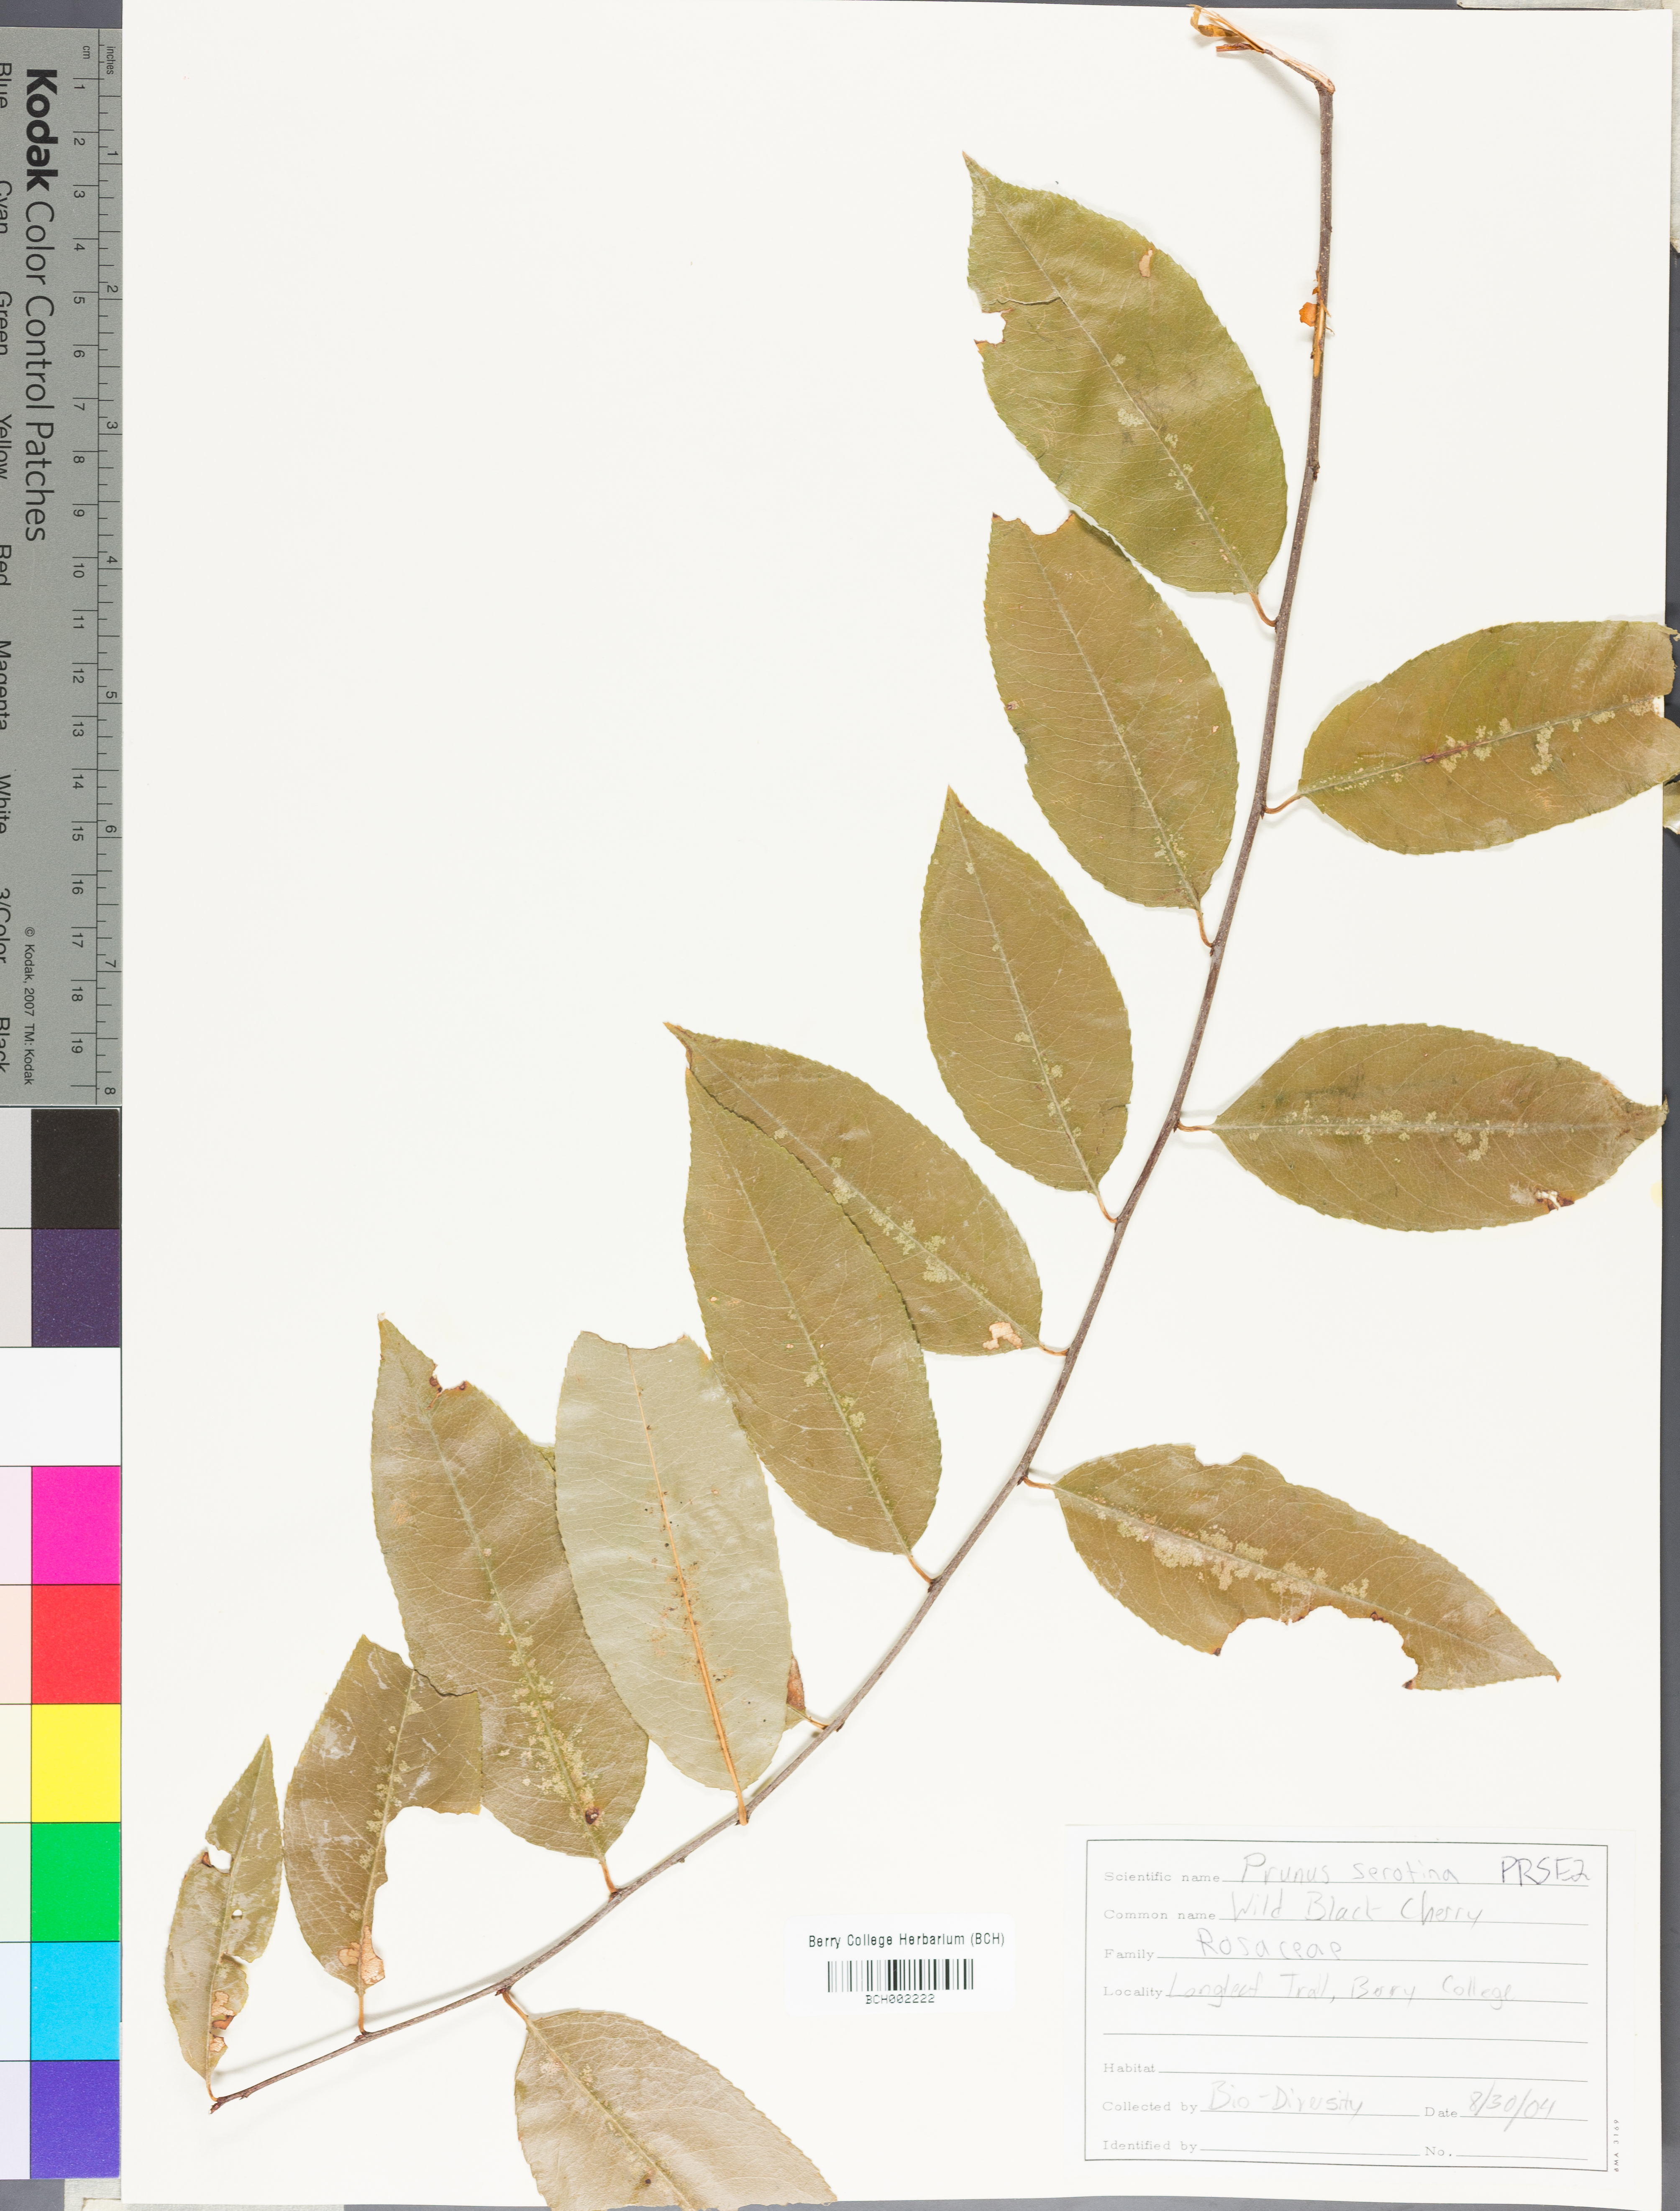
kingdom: Plantae
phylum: Tracheophyta
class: Magnoliopsida
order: Rosales
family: Rosaceae
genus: Prunus
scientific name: Prunus serotina
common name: Black cherry
